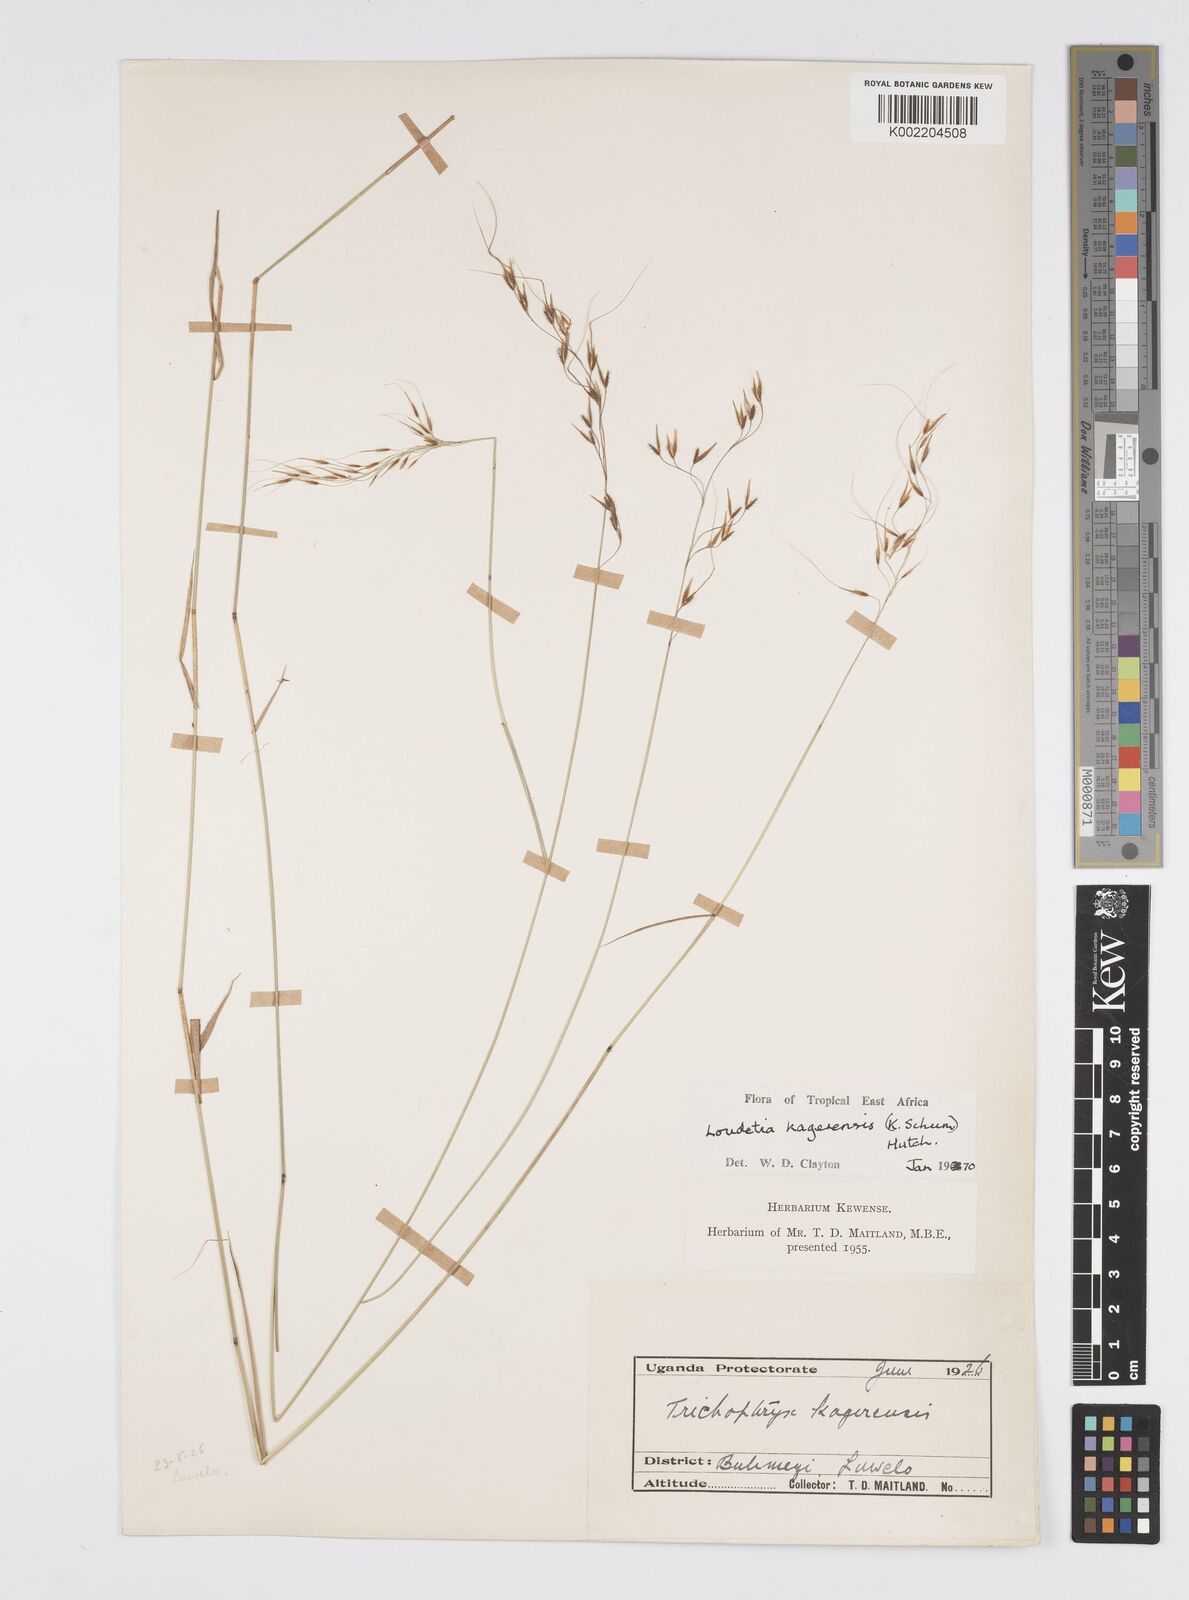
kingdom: Plantae
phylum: Tracheophyta
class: Liliopsida
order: Poales
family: Poaceae
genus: Loudetia
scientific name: Loudetia kagerensis
